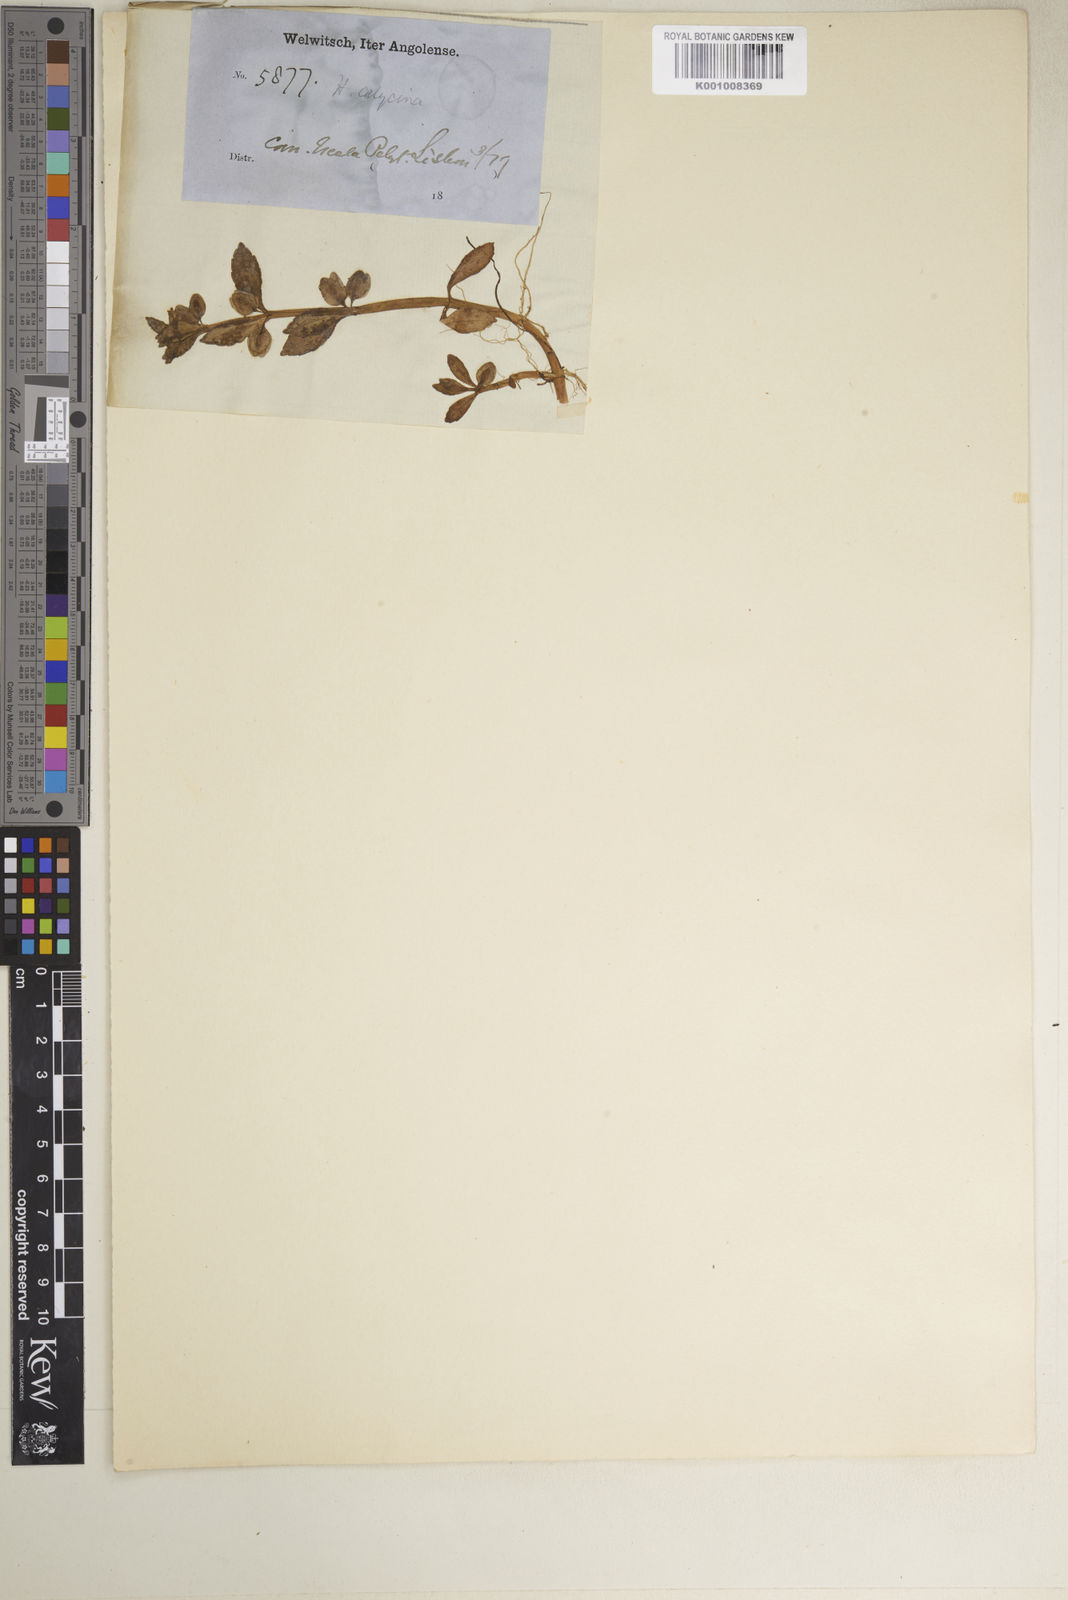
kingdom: Plantae
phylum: Tracheophyta
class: Magnoliopsida
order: Lamiales
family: Plantaginaceae
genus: Bacopa
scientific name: Bacopa crenata
